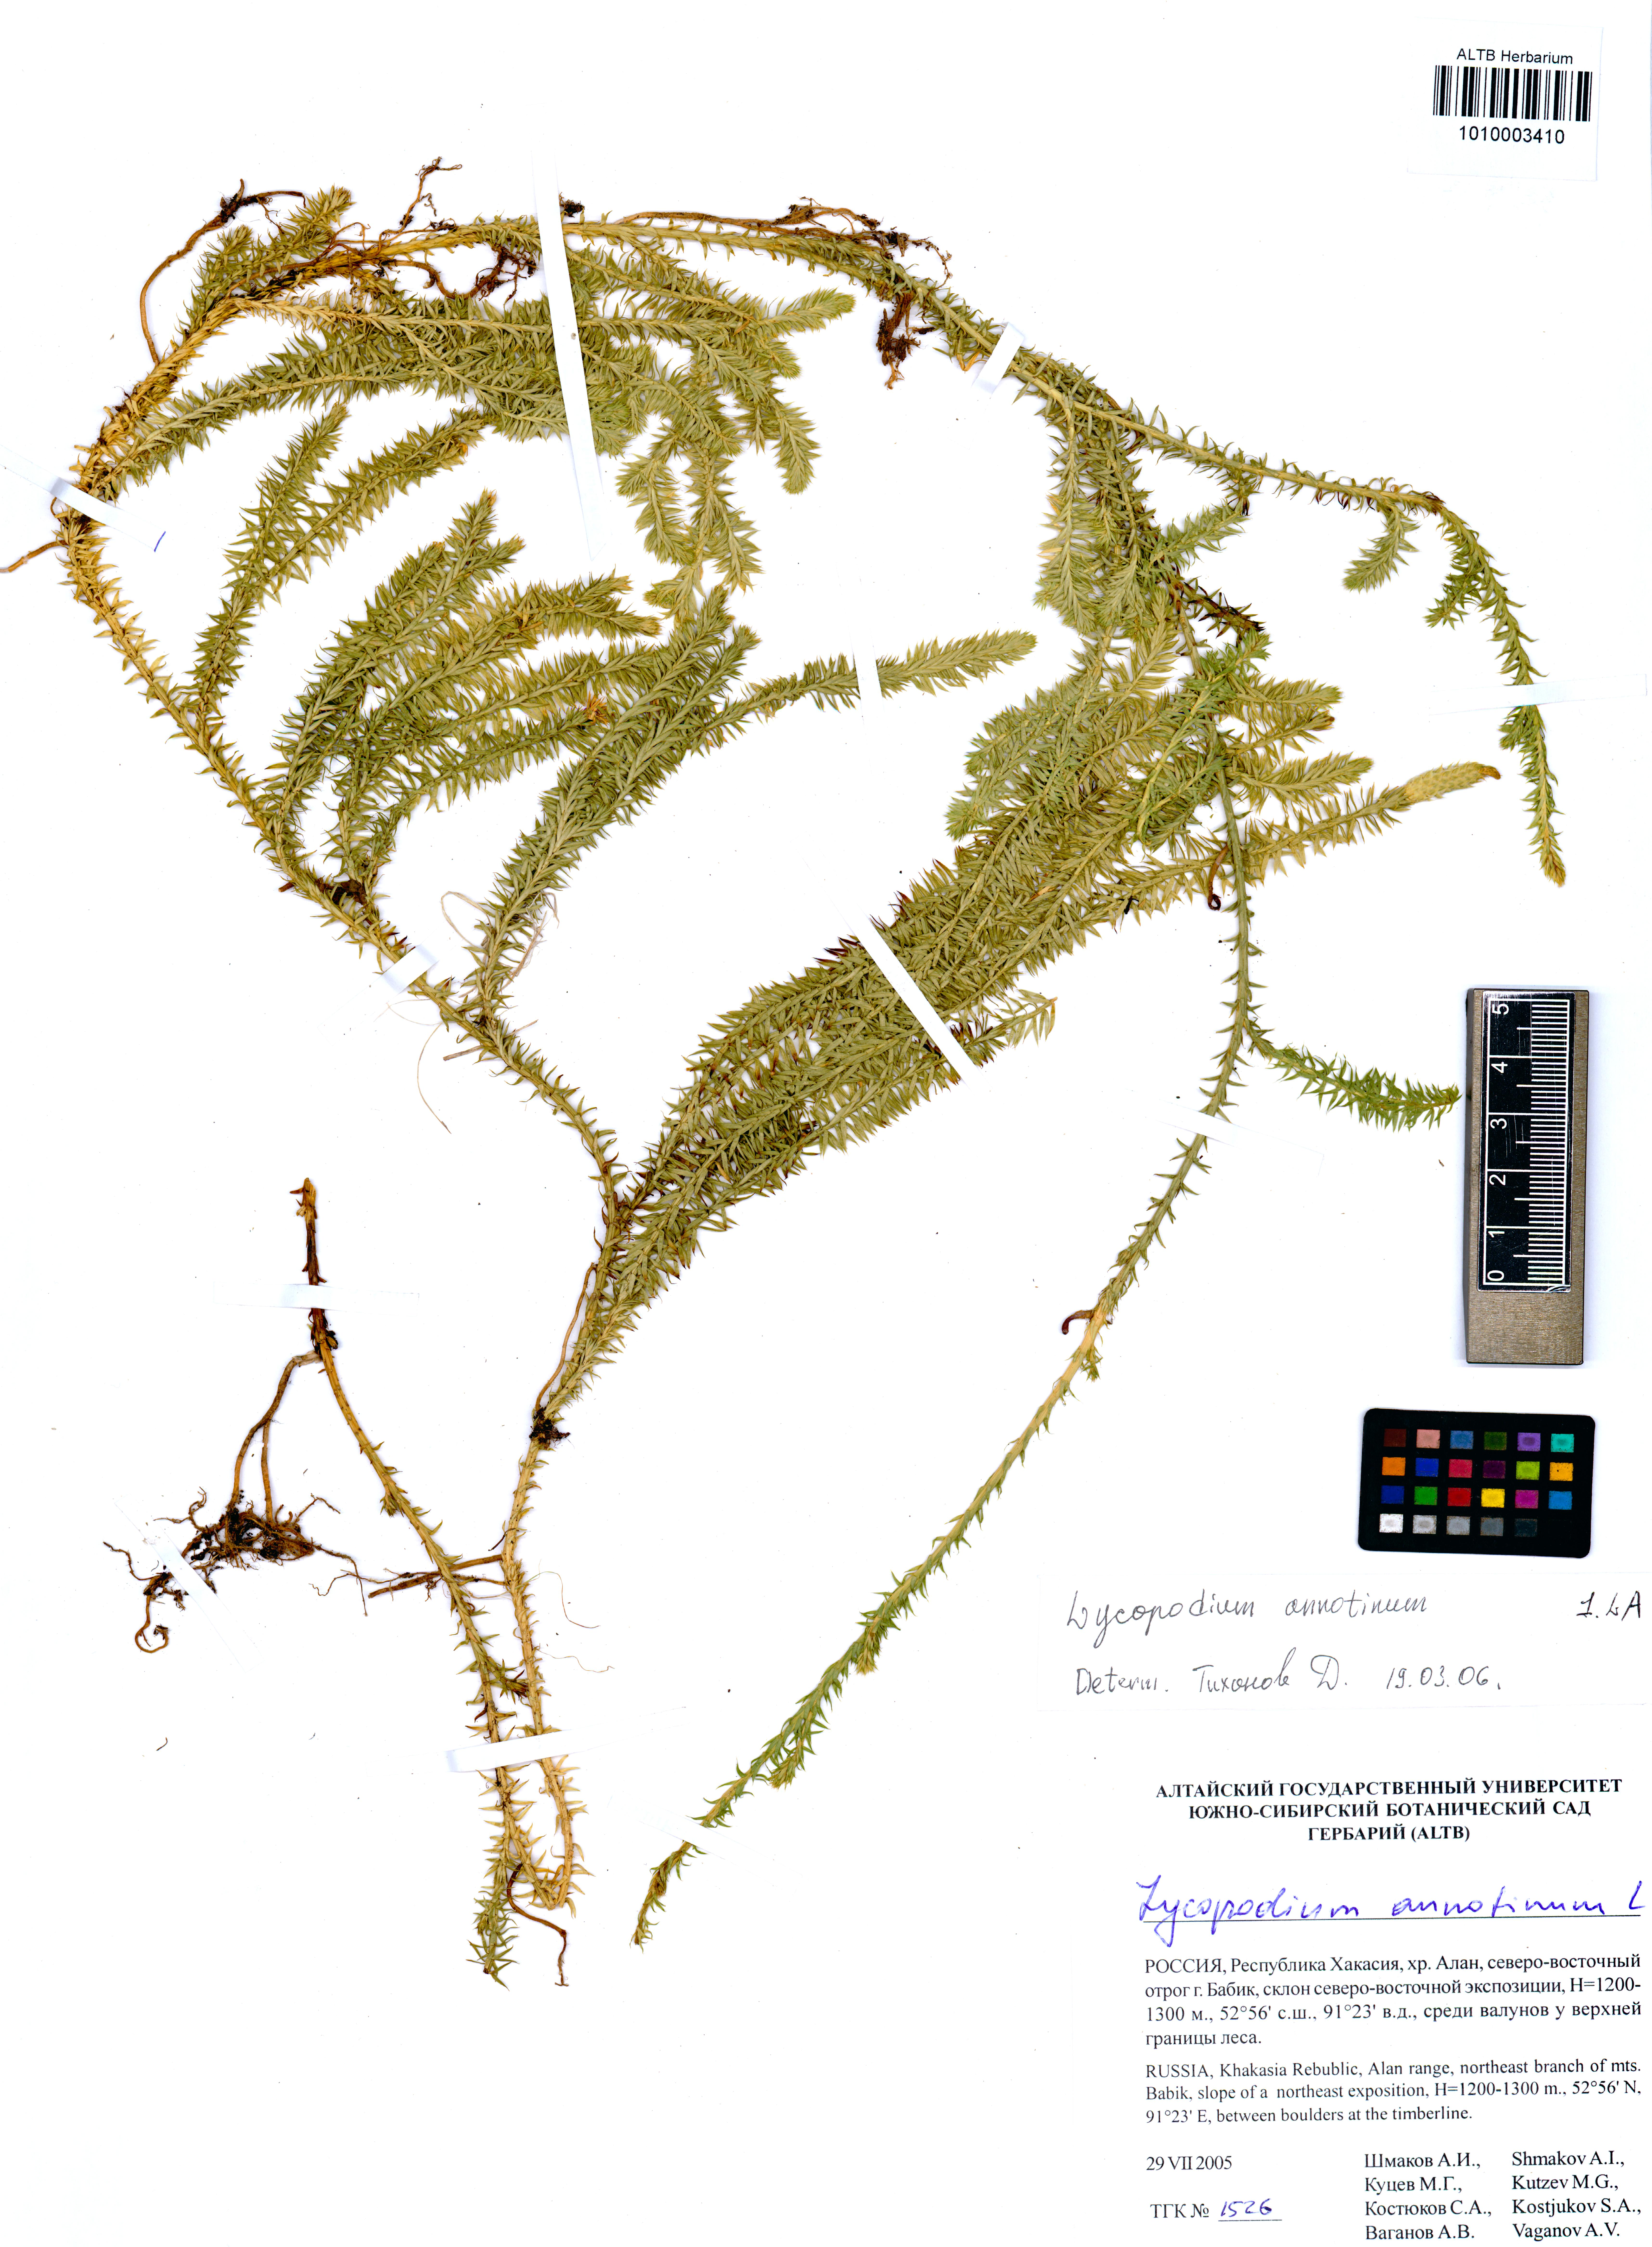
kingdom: Plantae
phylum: Tracheophyta
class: Lycopodiopsida
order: Lycopodiales
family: Lycopodiaceae
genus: Spinulum
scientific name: Spinulum annotinum
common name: Interrupted club-moss
